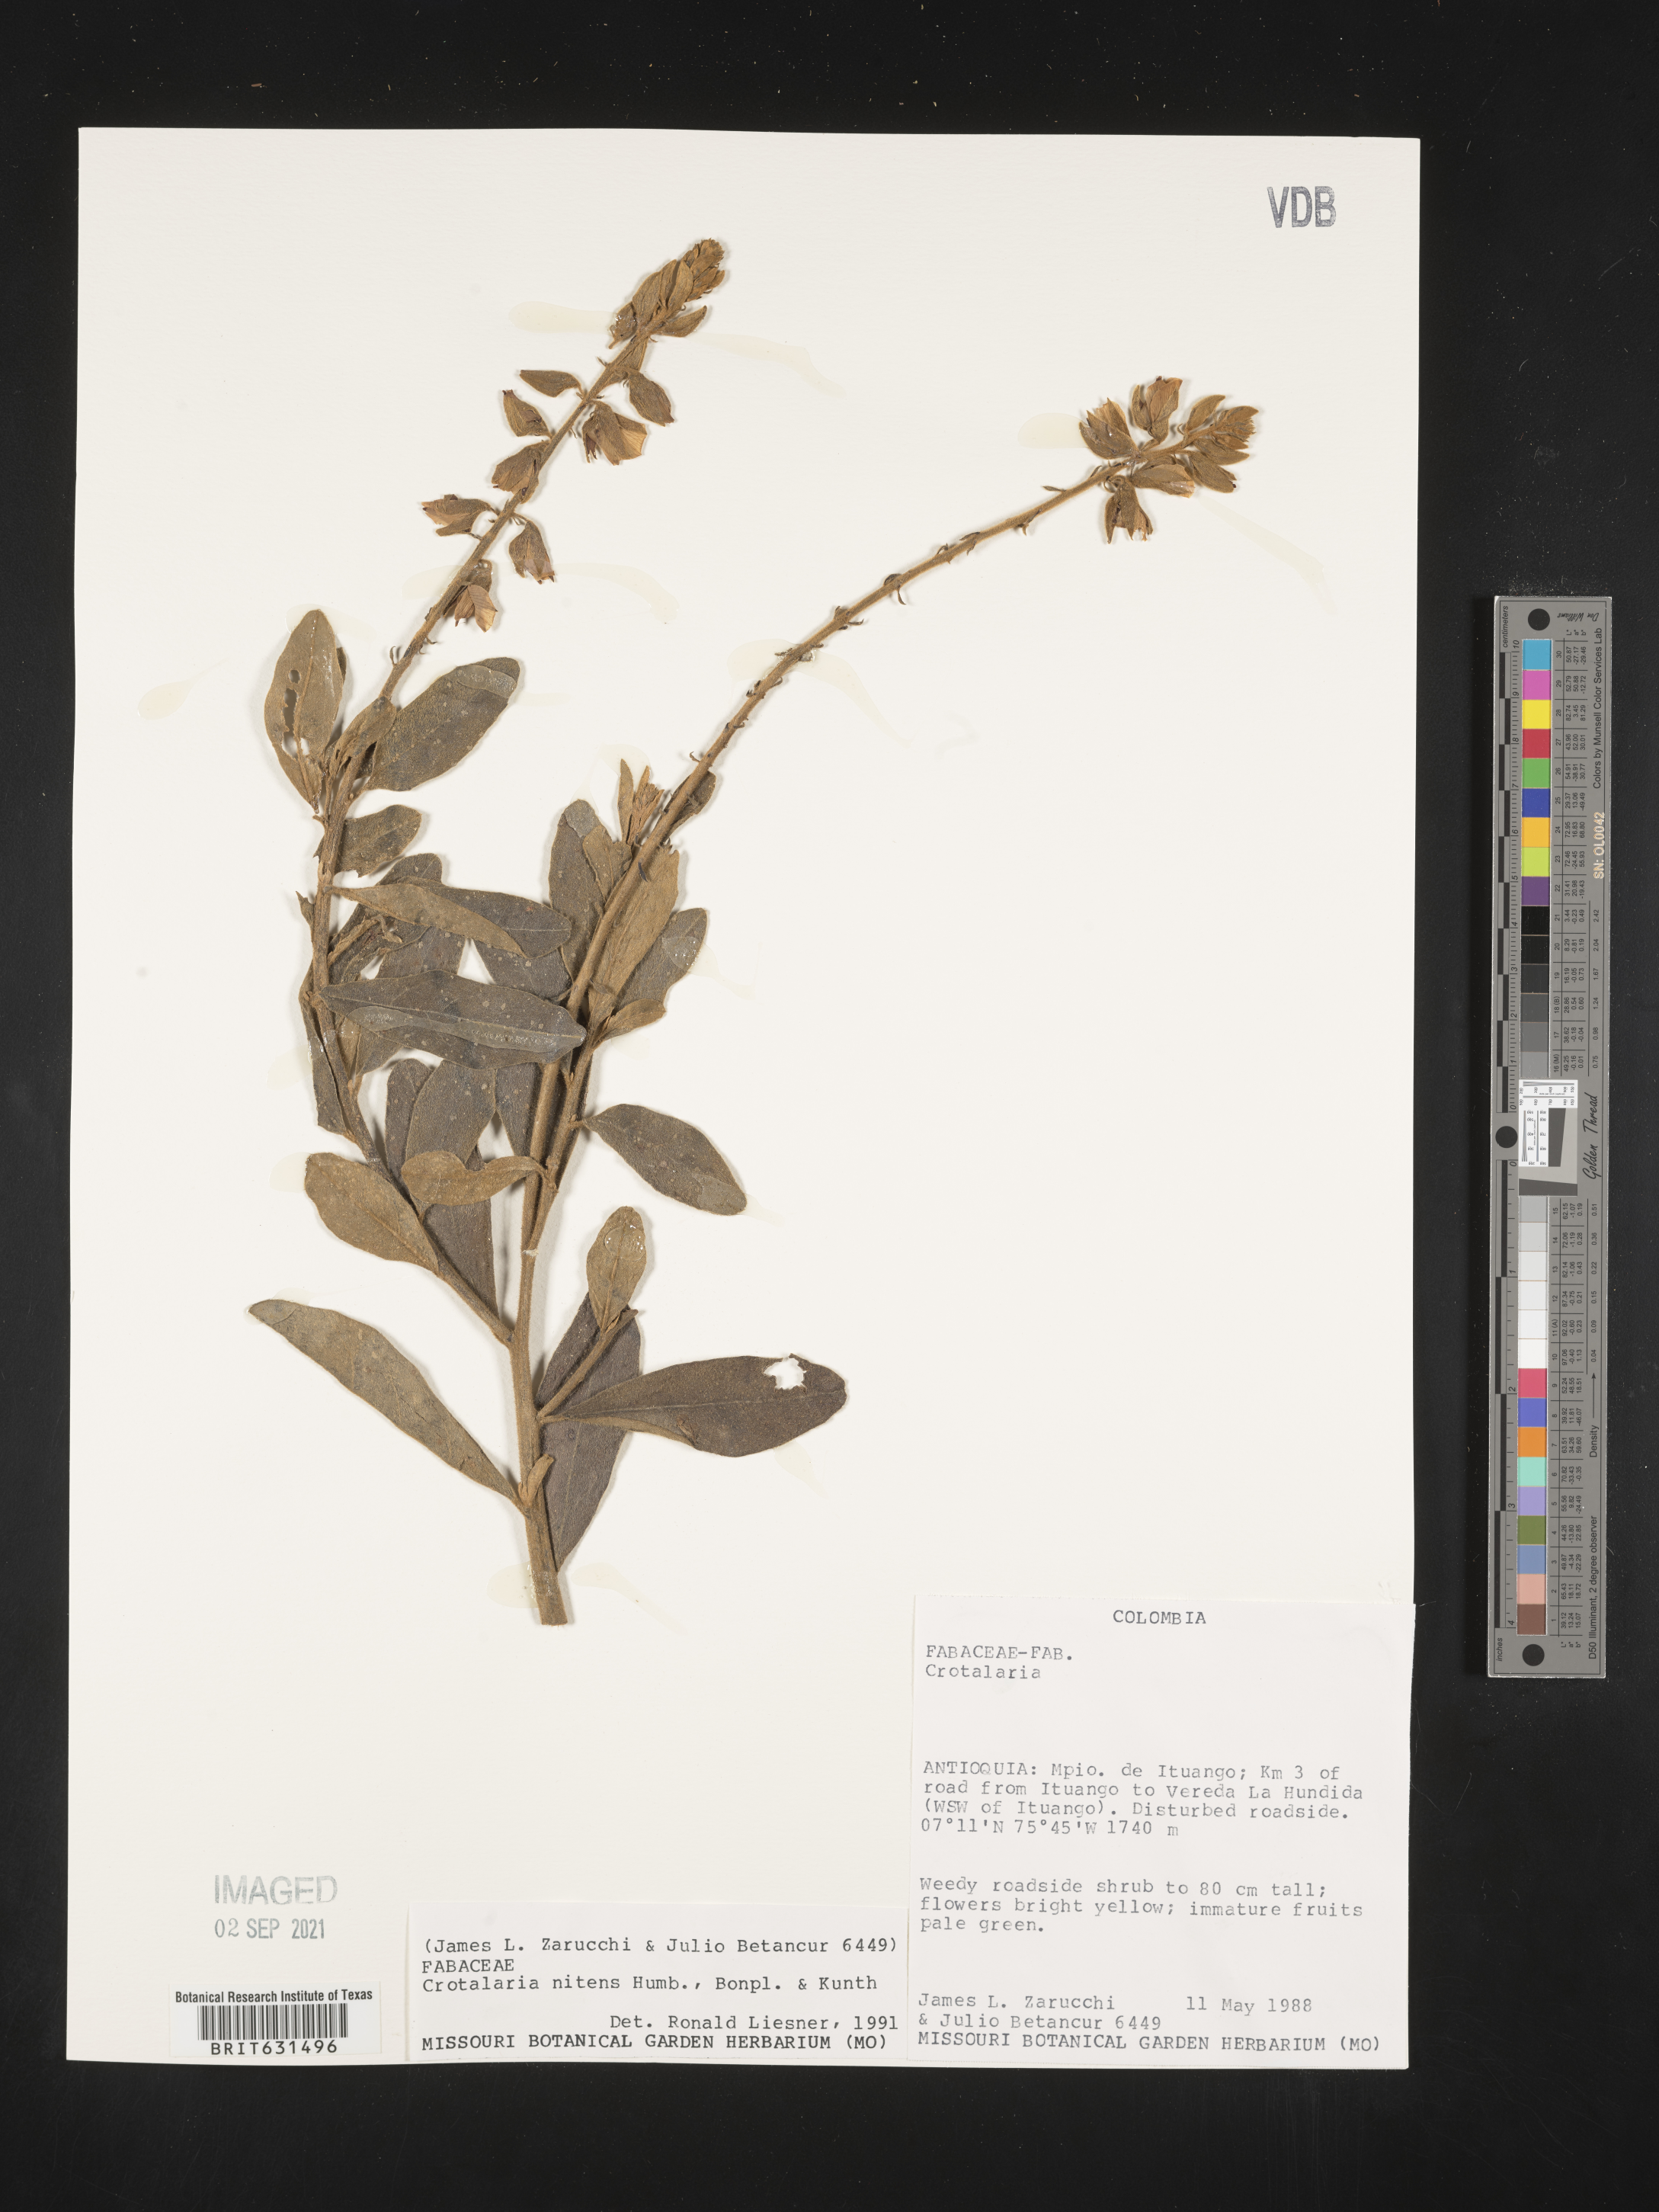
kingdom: Plantae
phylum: Tracheophyta
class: Magnoliopsida
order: Fabales
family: Fabaceae
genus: Crotalaria
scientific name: Crotalaria nitens
